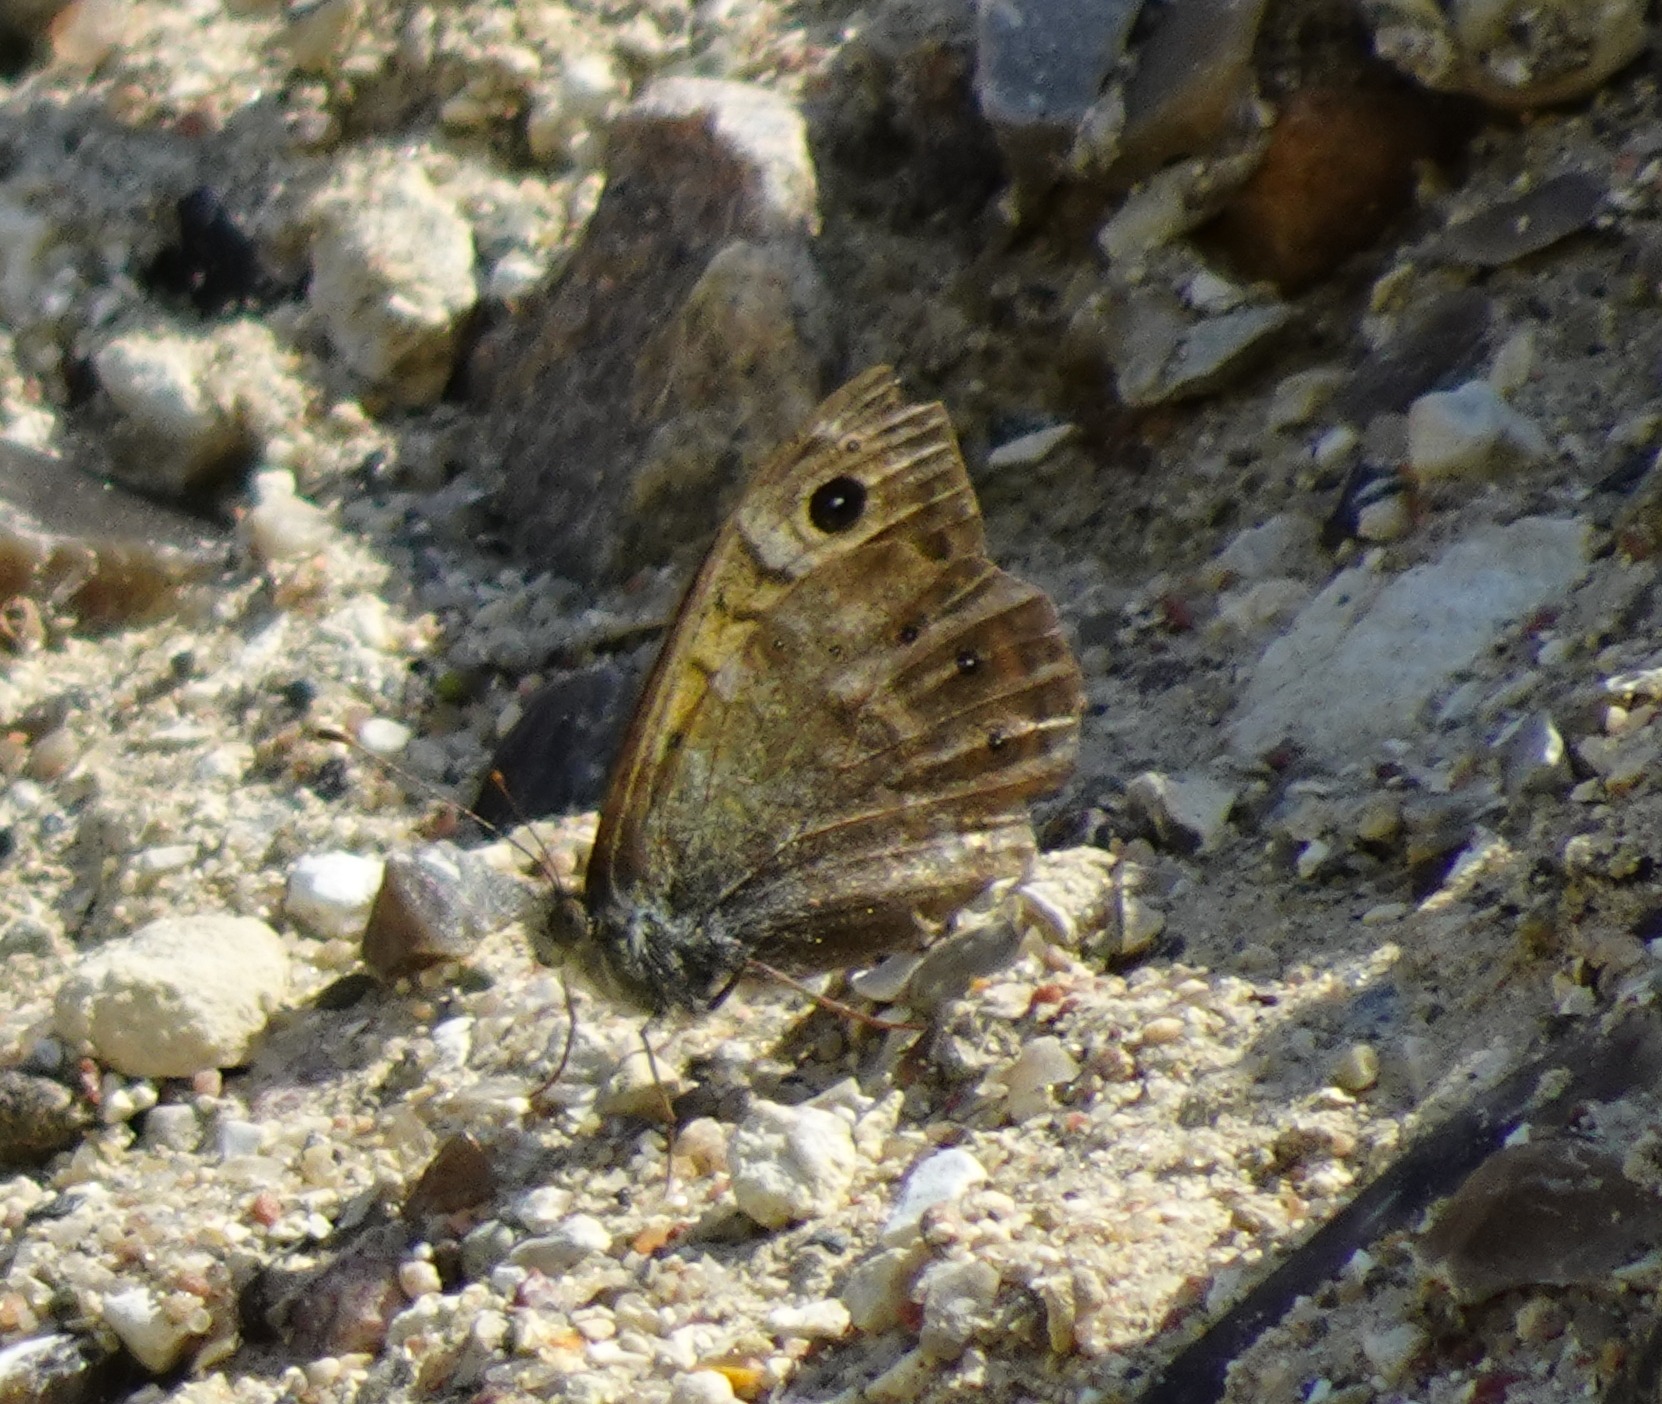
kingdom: Animalia
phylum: Arthropoda
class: Insecta
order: Lepidoptera
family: Nymphalidae
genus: Pararge
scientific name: Pararge Lasiommata megera
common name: Vejrandøje
